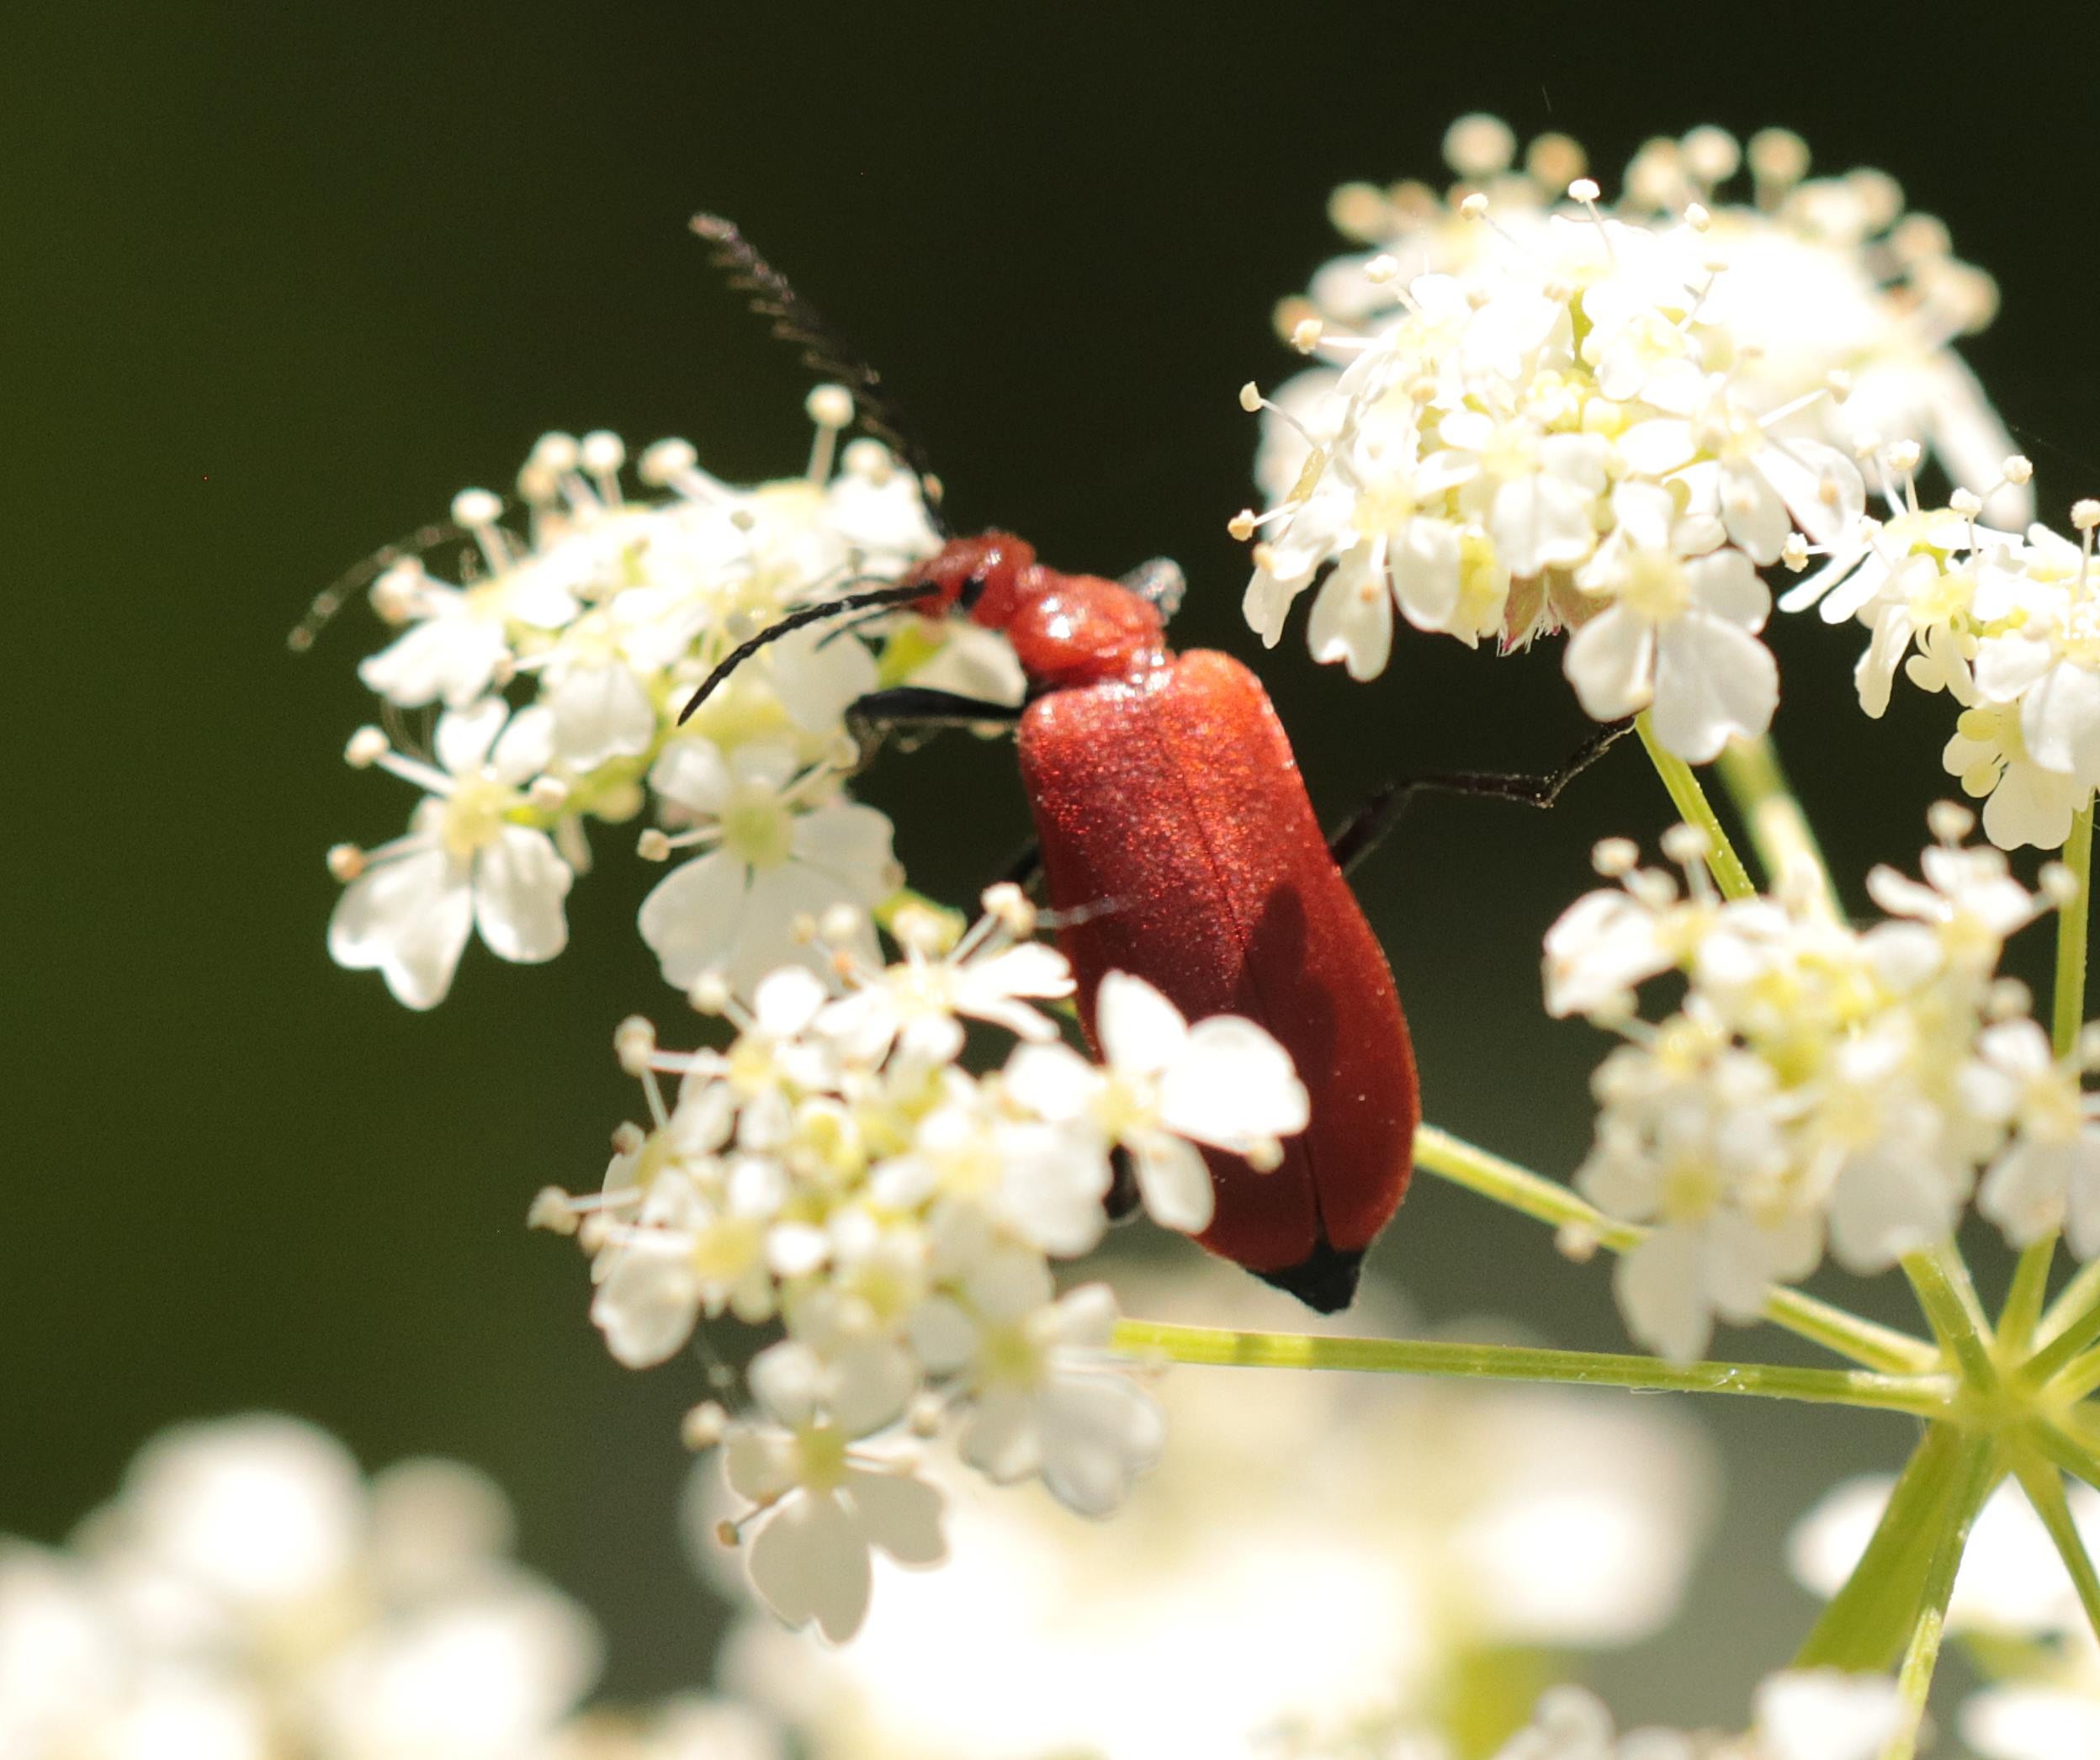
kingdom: Animalia
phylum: Arthropoda
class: Insecta
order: Coleoptera
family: Pyrochroidae
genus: Pyrochroa
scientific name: Pyrochroa serraticornis
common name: Rødhovedet kardinalbille
